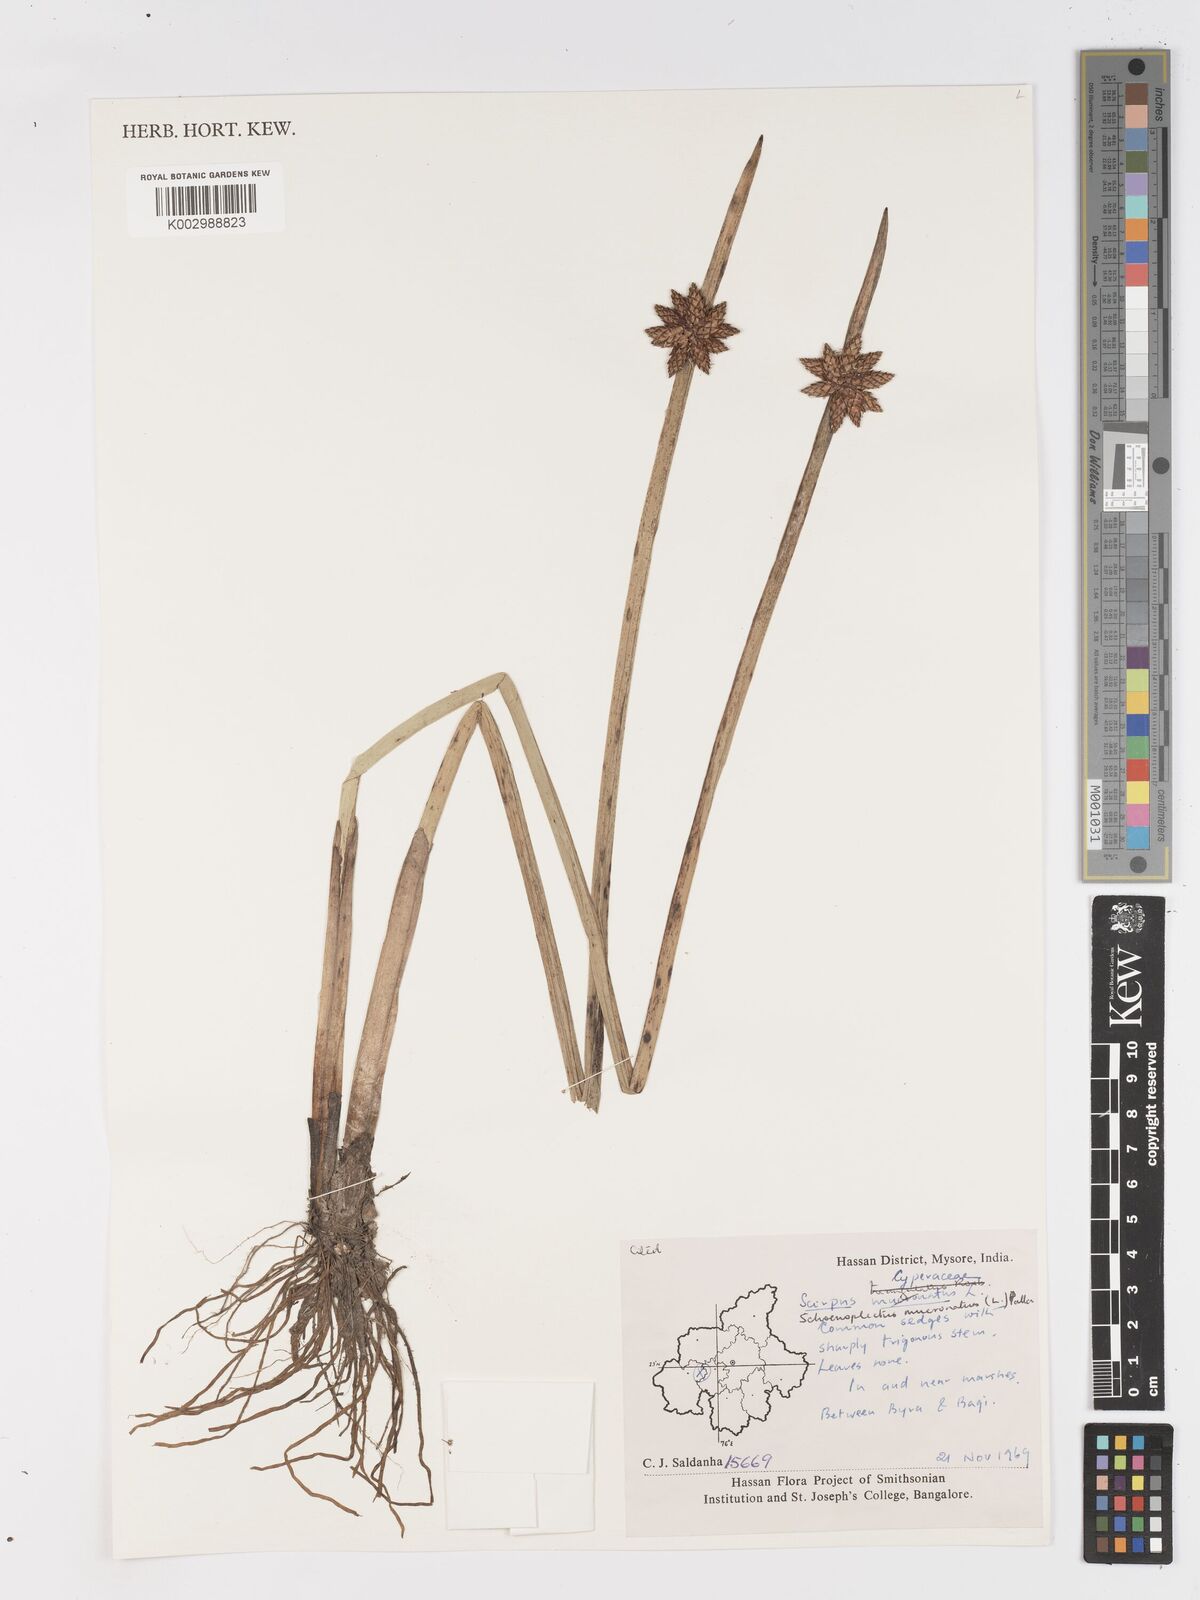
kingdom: Plantae
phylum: Tracheophyta
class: Liliopsida
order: Poales
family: Cyperaceae
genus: Schoenoplectiella
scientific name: Schoenoplectiella mucronata
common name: Bog bulrush
